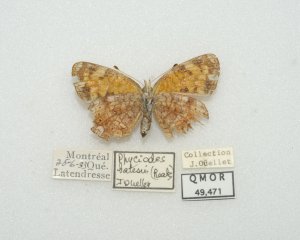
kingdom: Animalia
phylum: Arthropoda
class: Insecta
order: Lepidoptera
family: Nymphalidae
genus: Phyciodes
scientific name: Phyciodes tharos
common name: Northern Crescent
